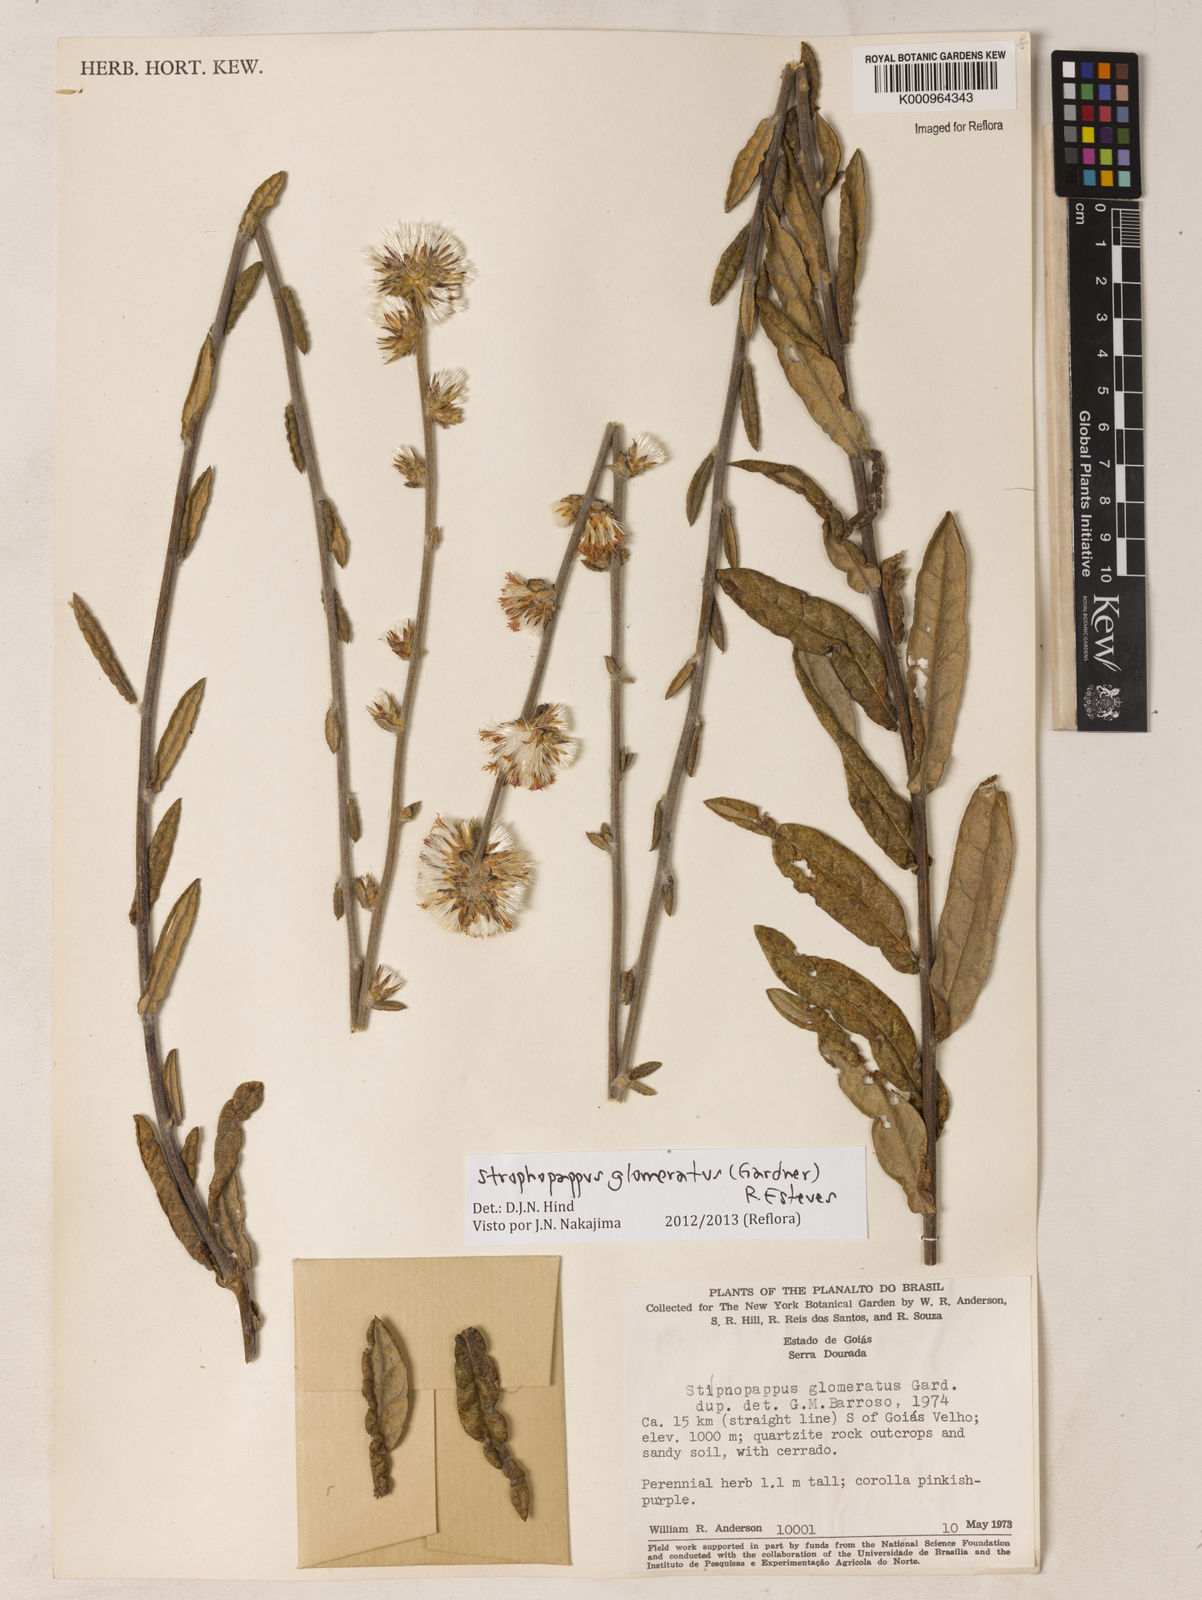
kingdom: Plantae
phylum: Tracheophyta
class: Magnoliopsida
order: Asterales
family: Asteraceae
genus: Stilpnopappus
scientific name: Stilpnopappus glomeratus
